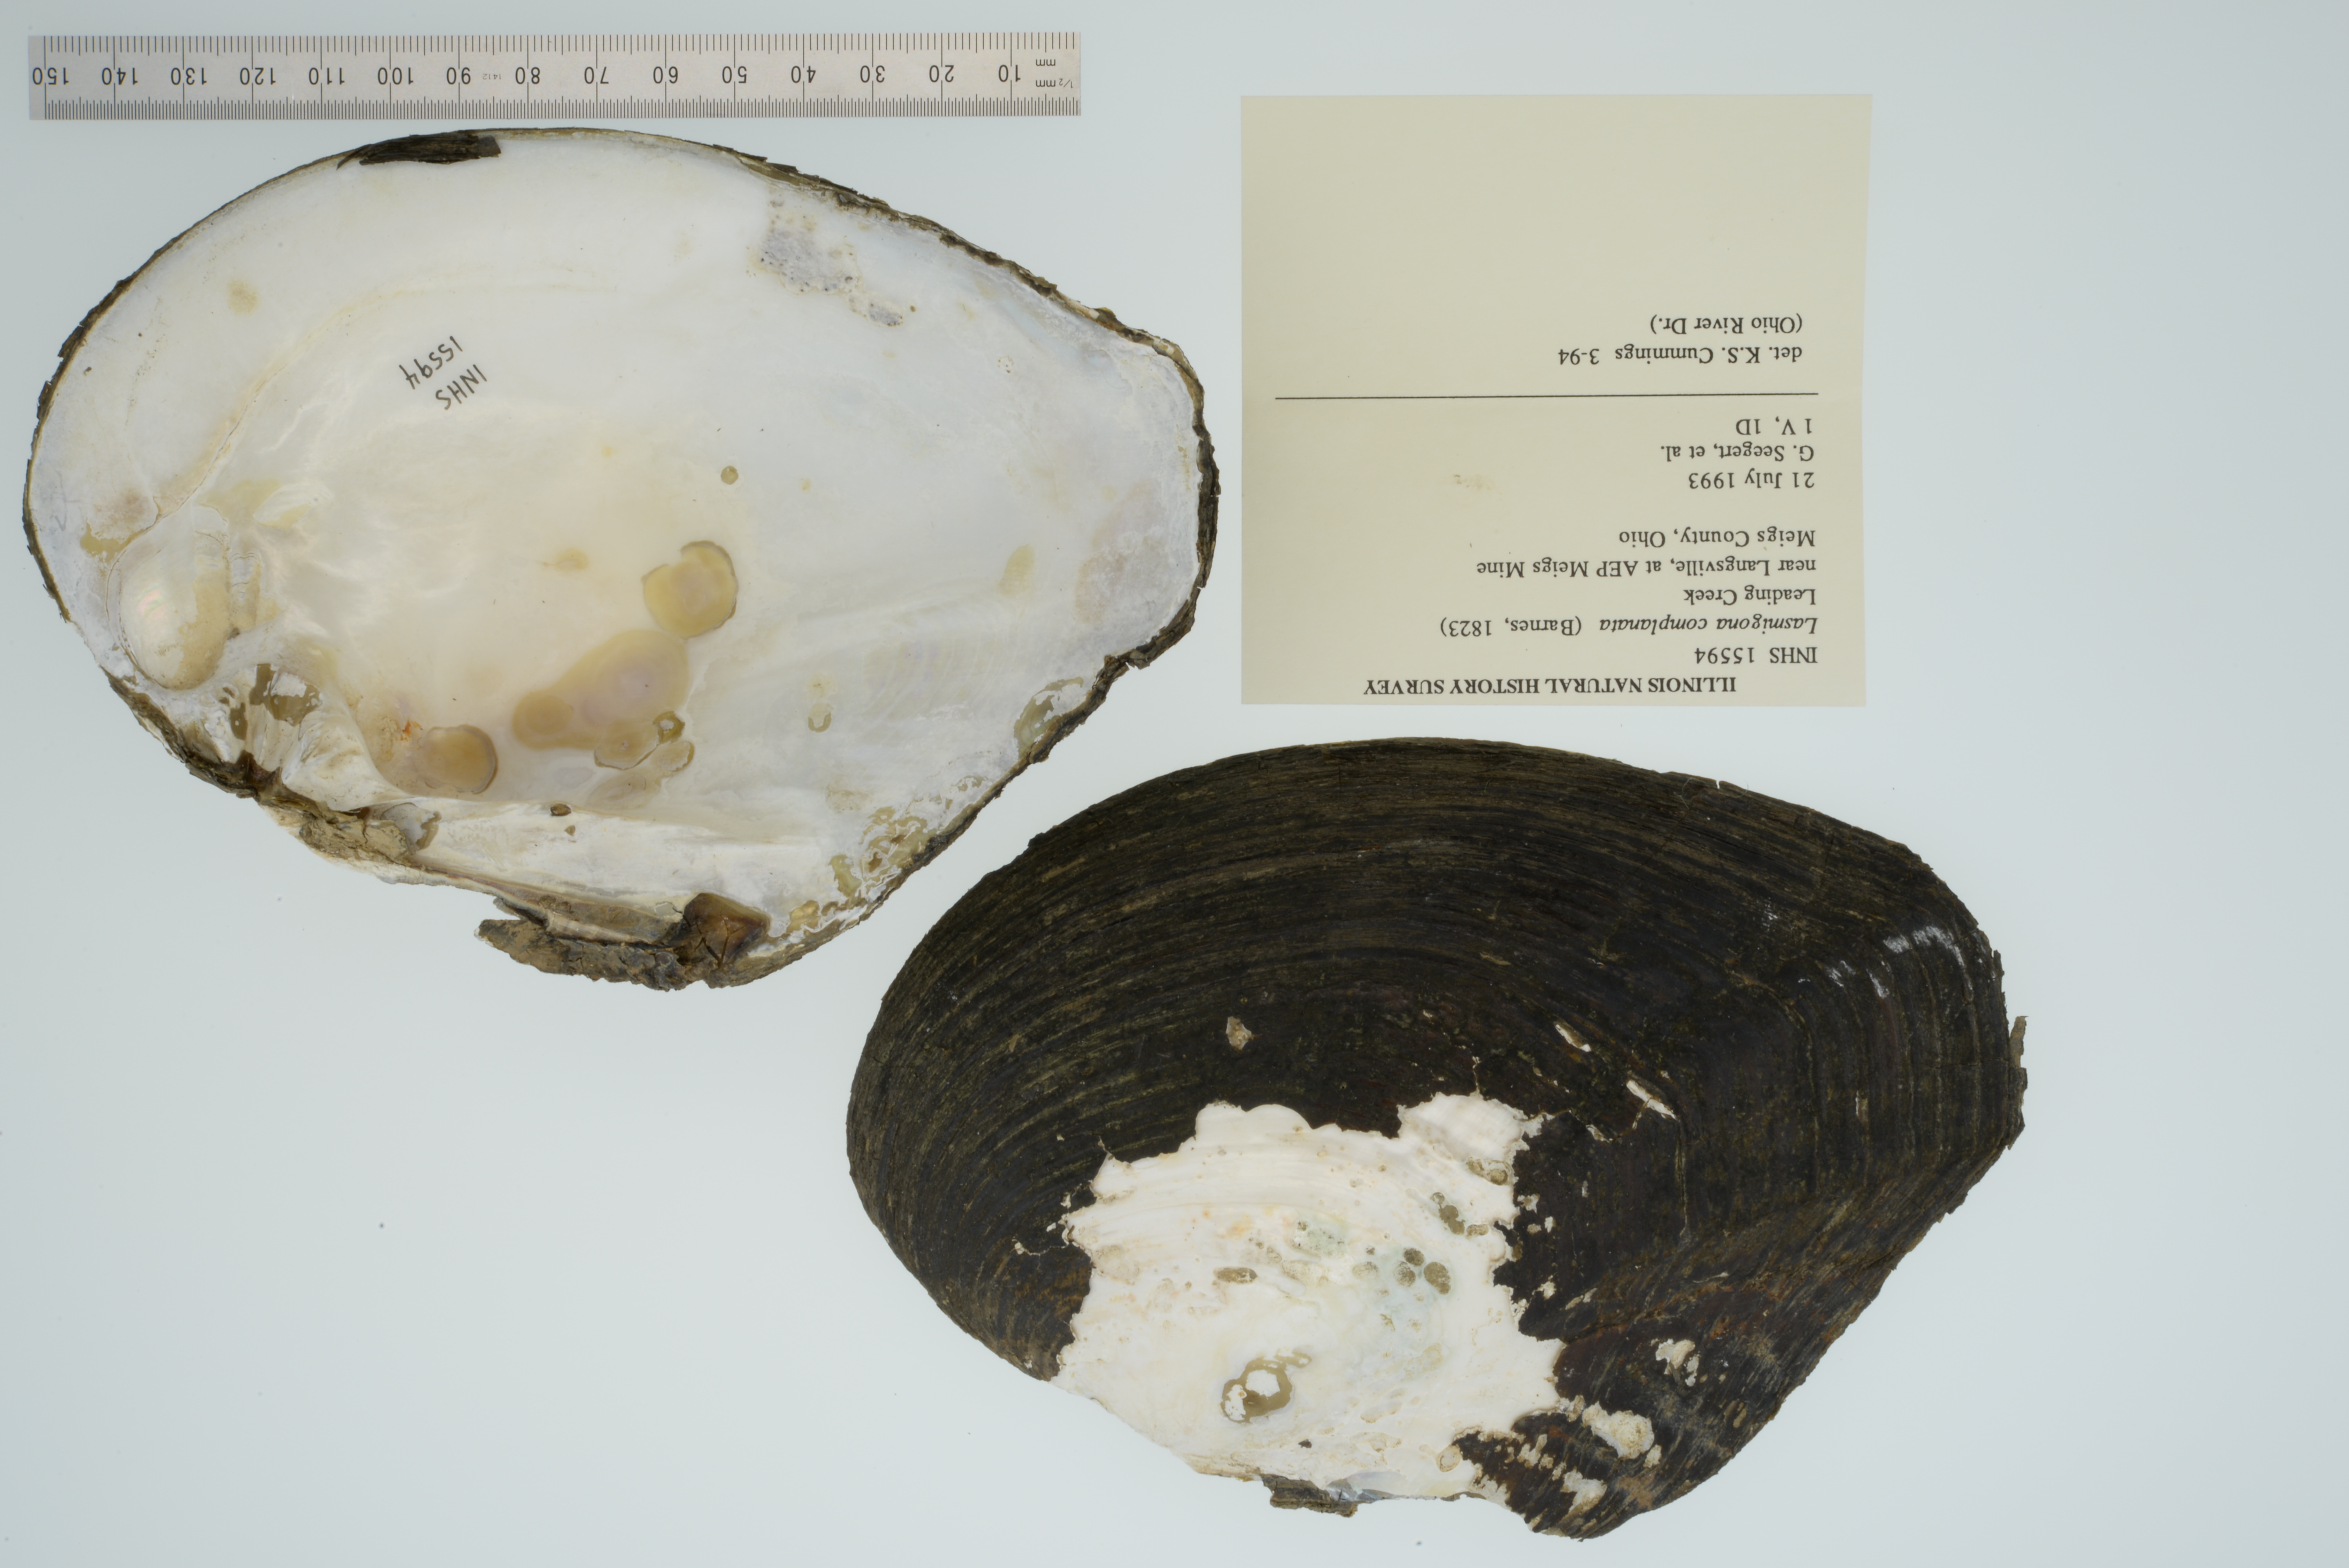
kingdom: Animalia
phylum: Mollusca
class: Bivalvia
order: Unionida
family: Unionidae
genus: Lasmigona
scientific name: Lasmigona complanata
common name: White heelsplitter
